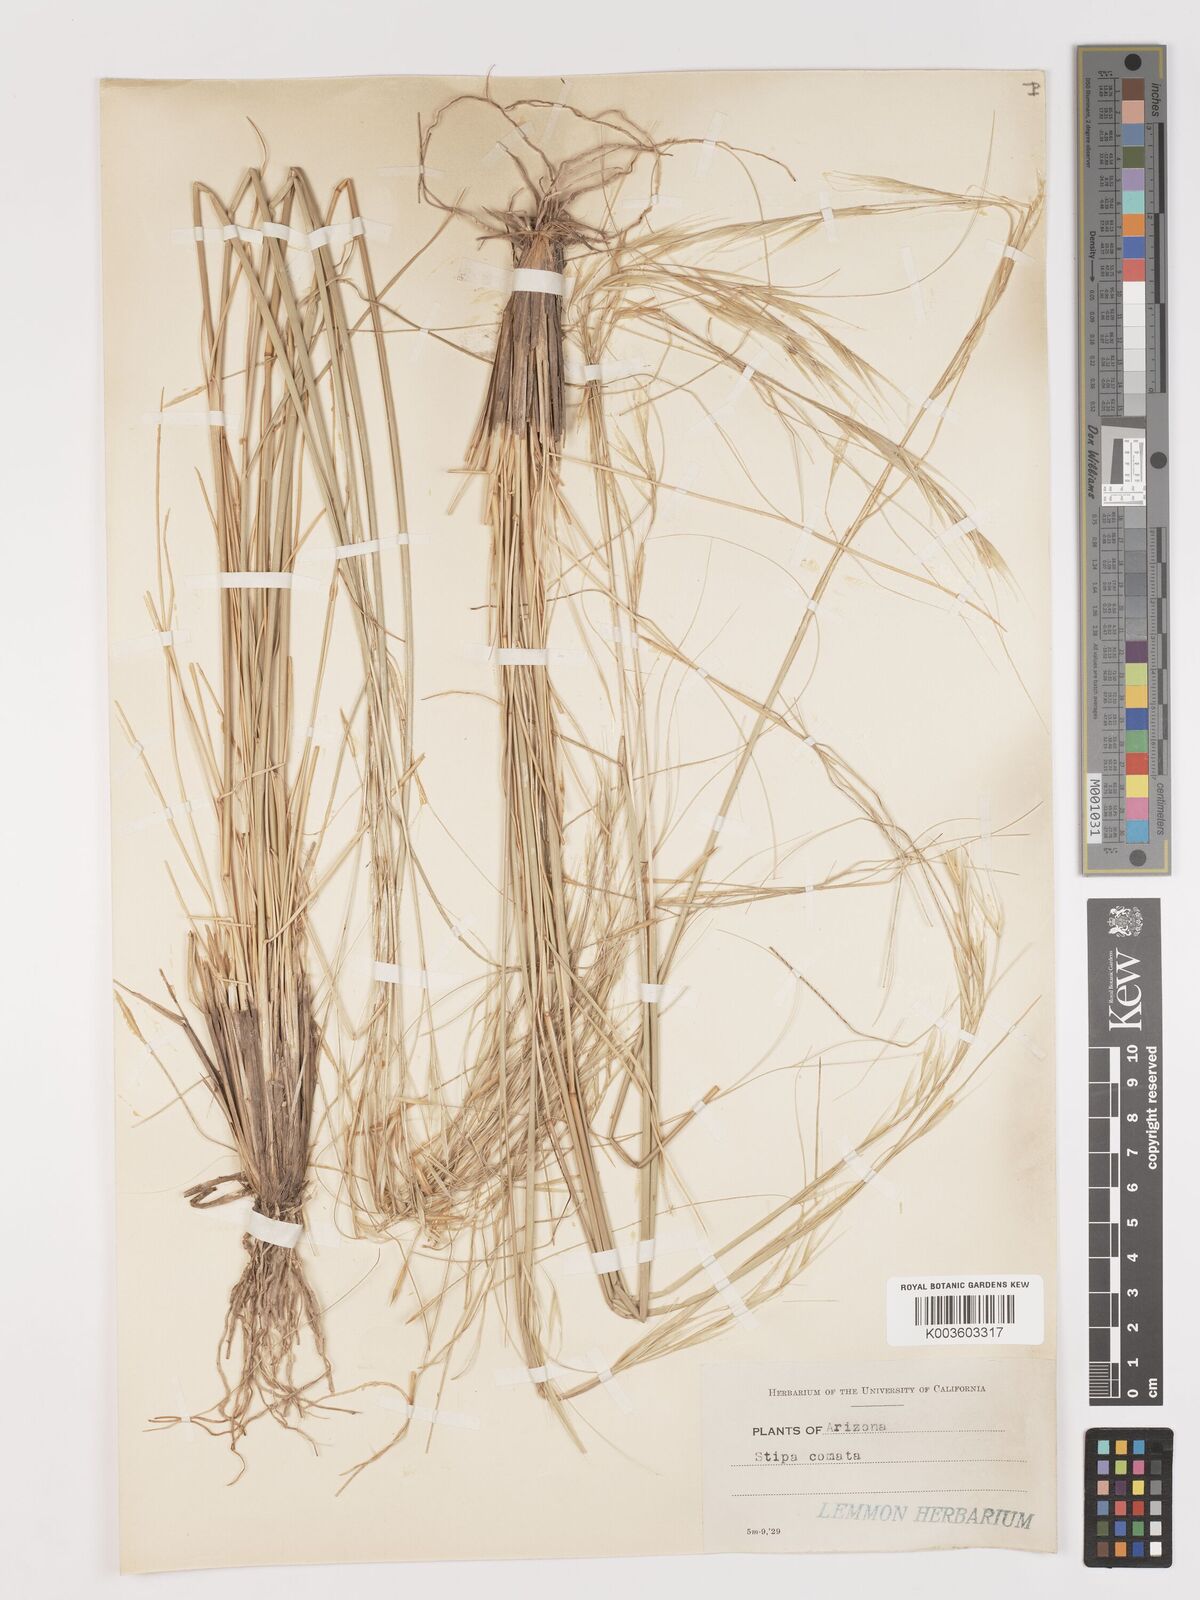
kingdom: Plantae
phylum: Tracheophyta
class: Liliopsida
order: Poales
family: Poaceae
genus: Hesperostipa
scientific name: Hesperostipa comata
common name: Needle-and-thread grass
